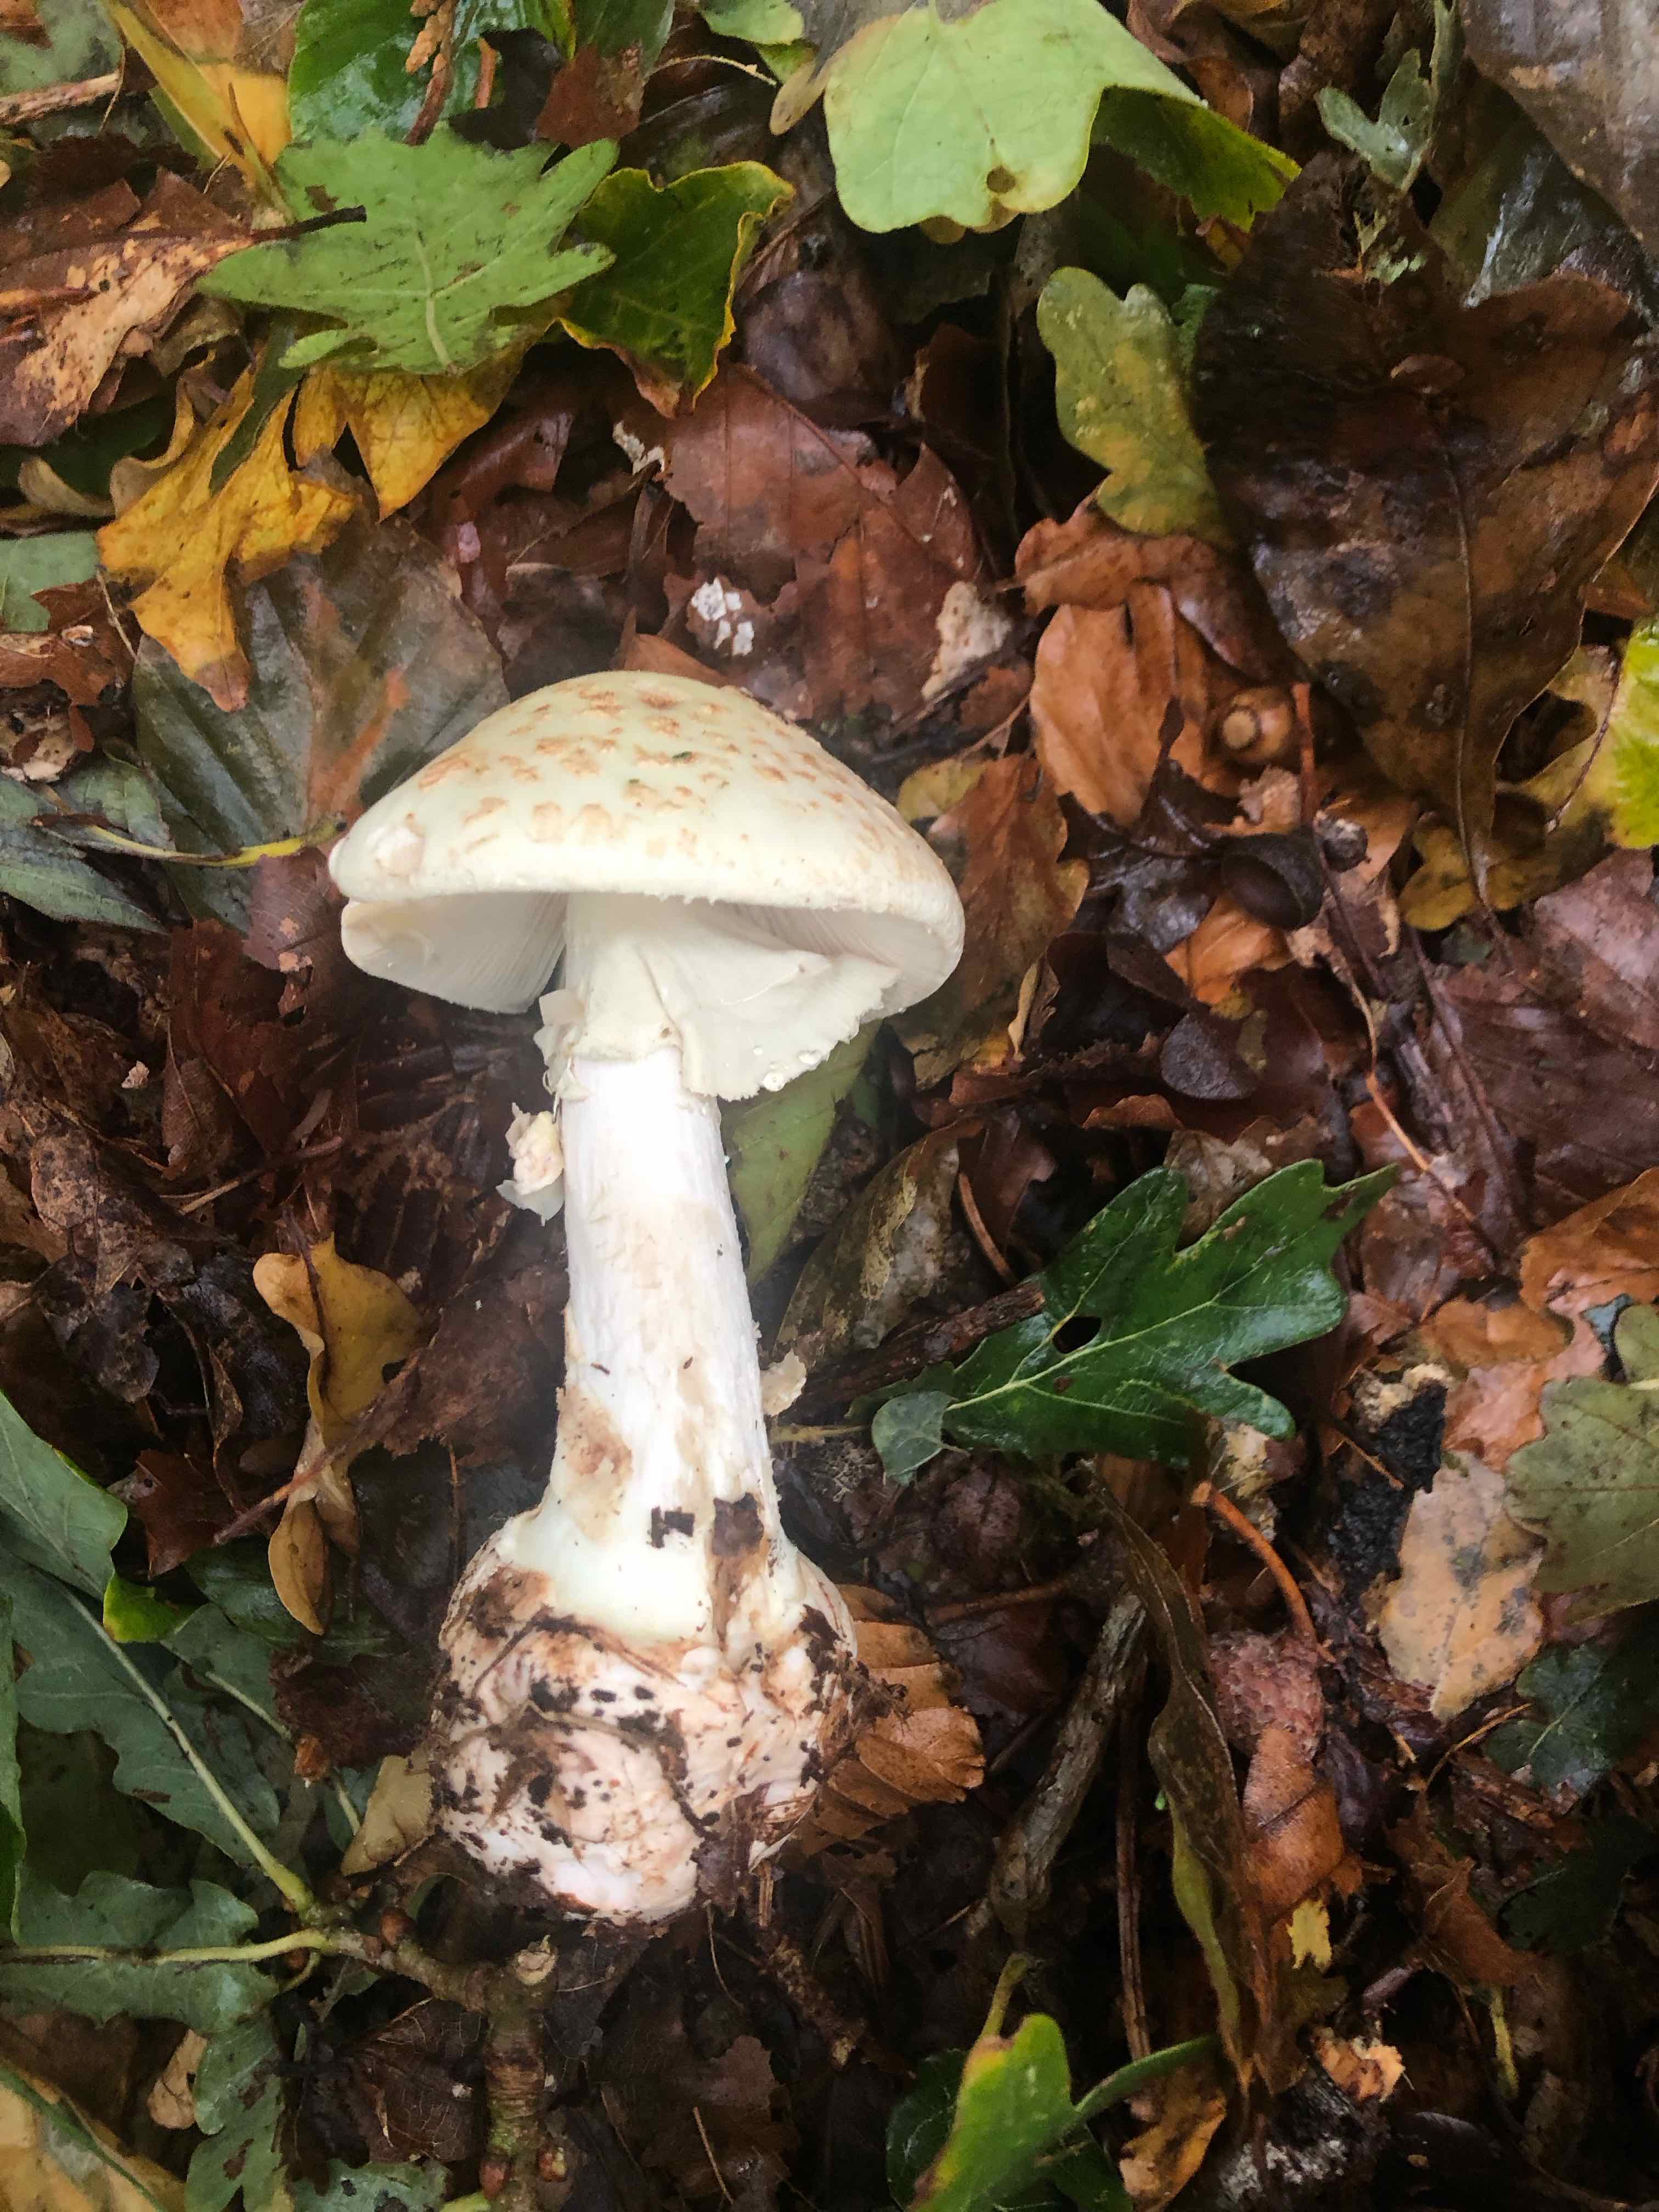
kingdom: Fungi
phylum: Basidiomycota
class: Agaricomycetes
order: Agaricales
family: Amanitaceae
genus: Amanita
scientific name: Amanita citrina
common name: kugleknoldet fluesvamp
